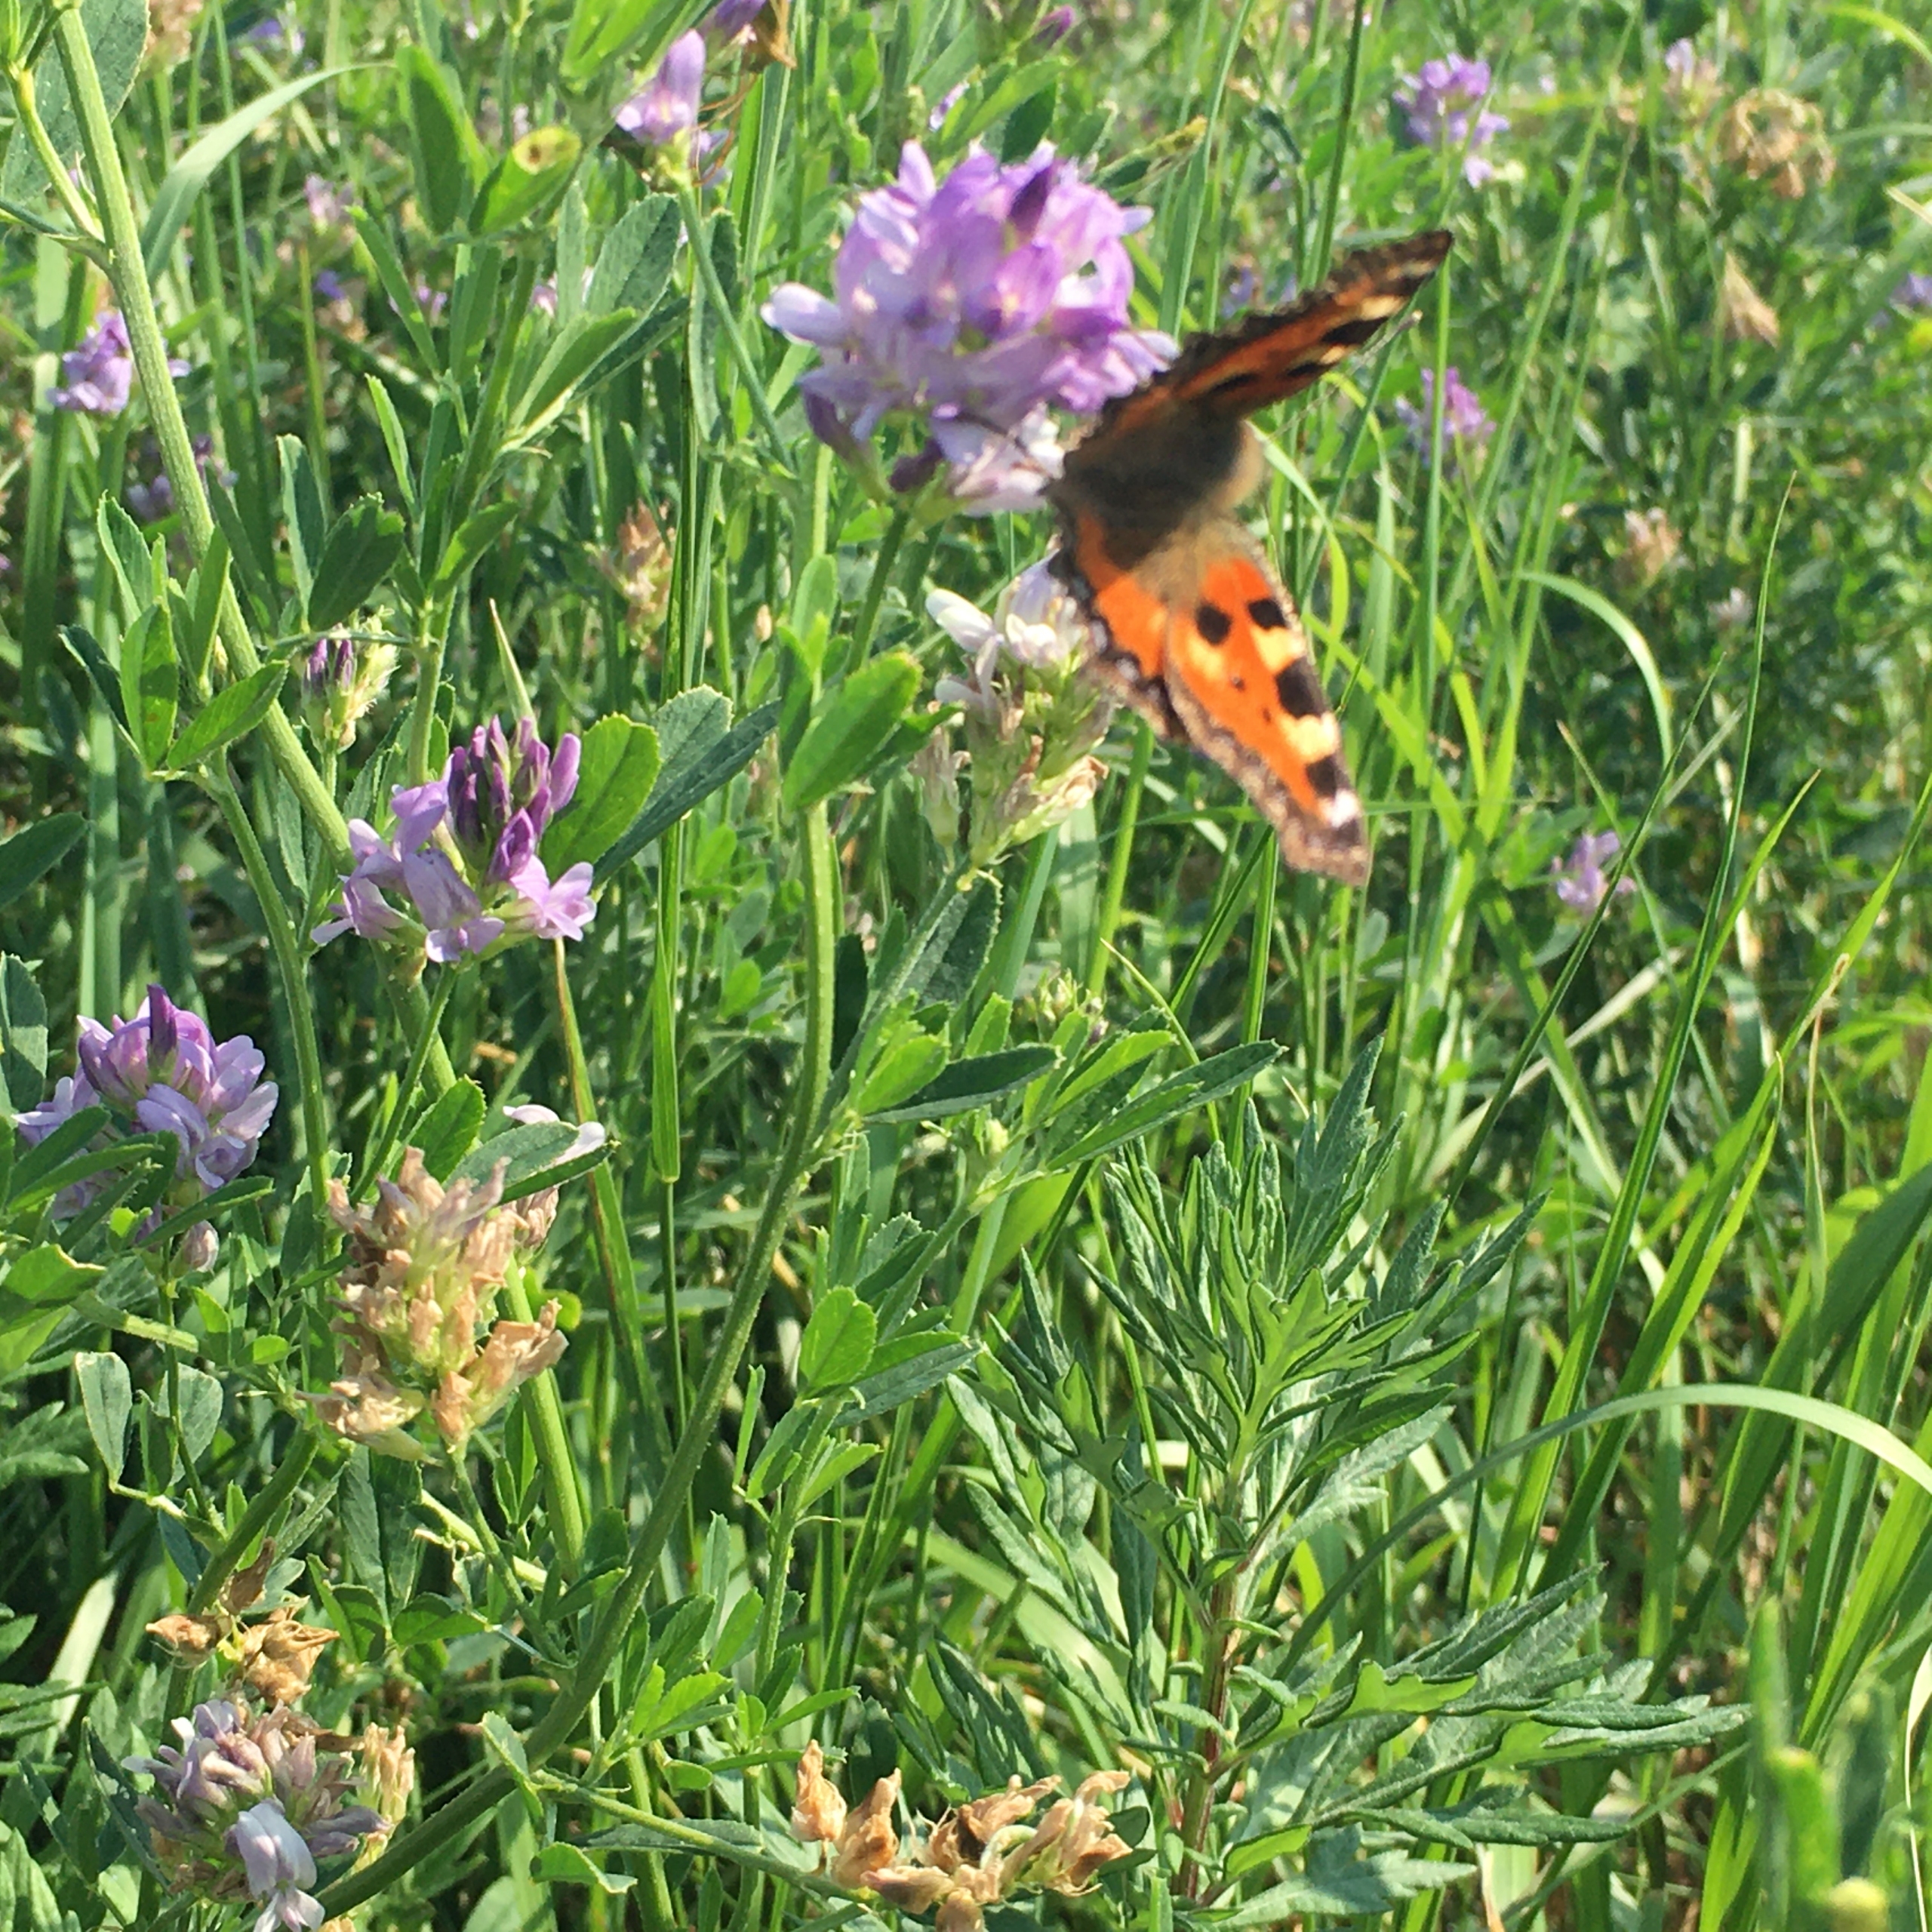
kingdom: Animalia
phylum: Arthropoda
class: Insecta
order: Lepidoptera
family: Nymphalidae
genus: Aglais
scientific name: Aglais urticae
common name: Nældens takvinge
